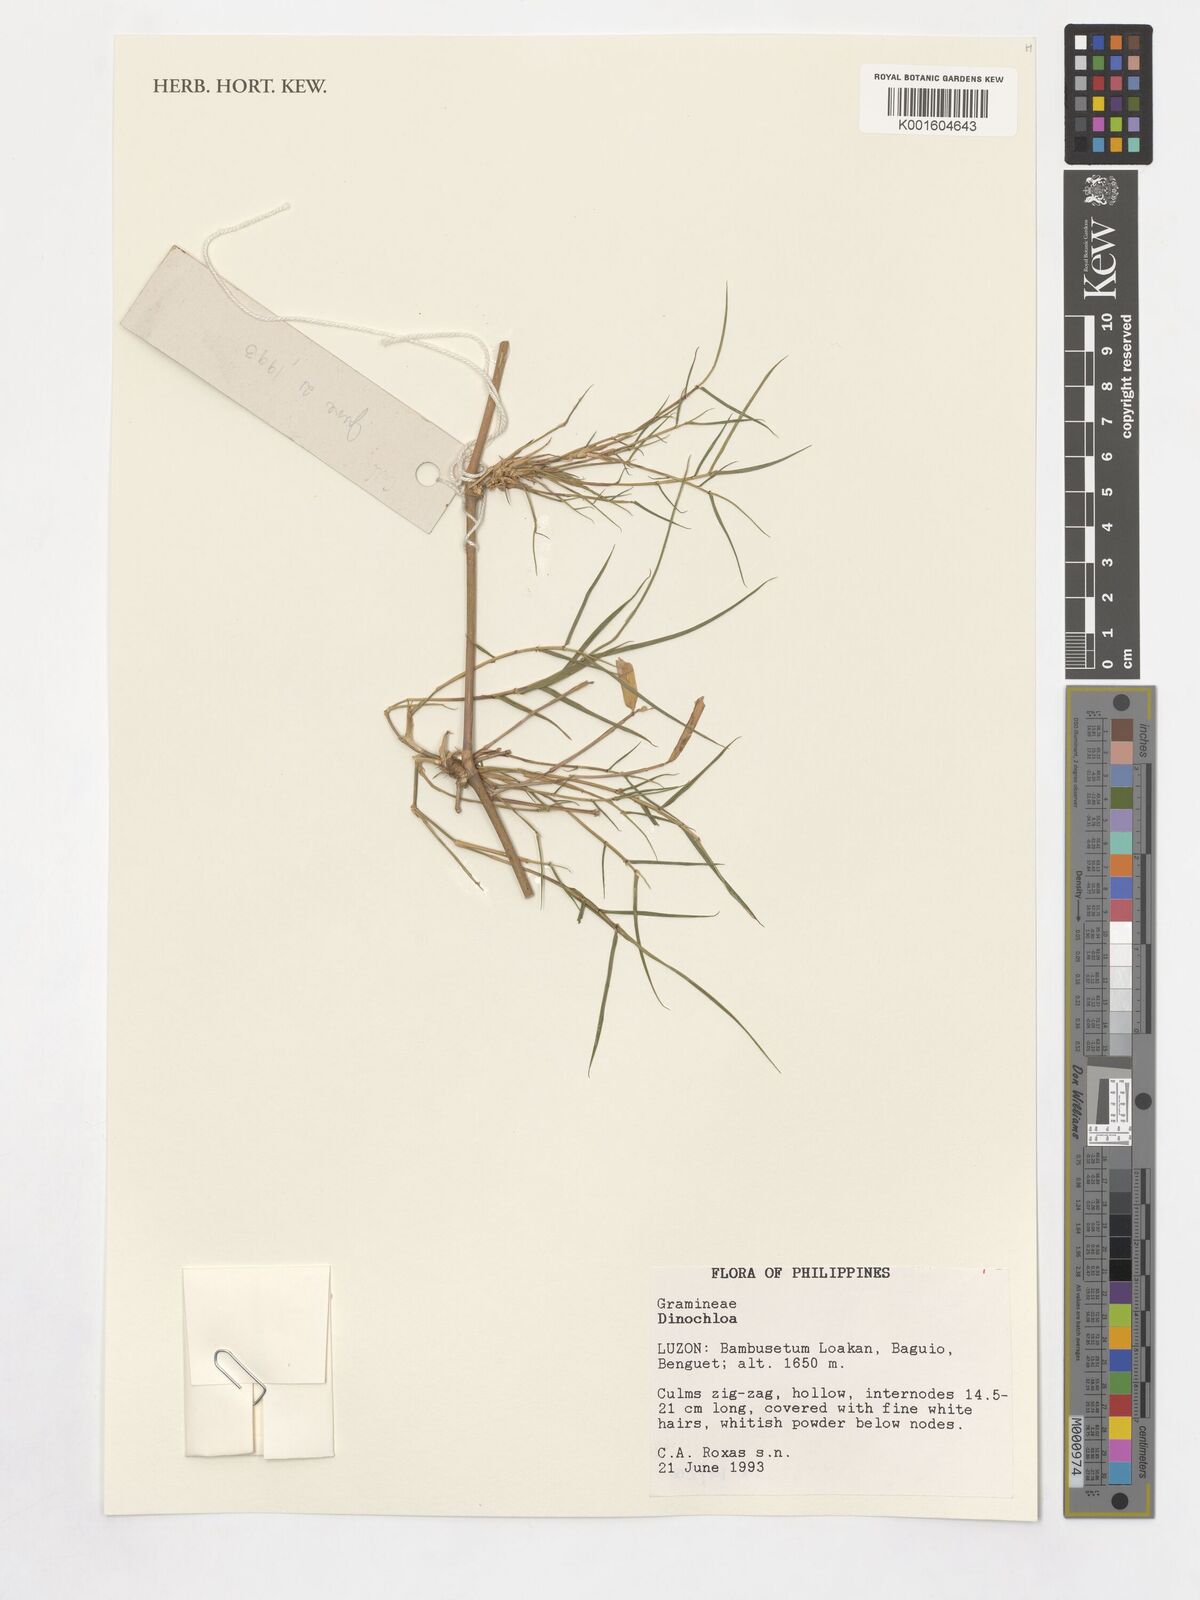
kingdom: Plantae
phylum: Tracheophyta
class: Liliopsida
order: Poales
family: Poaceae
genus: Dinochloa
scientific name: Dinochloa
